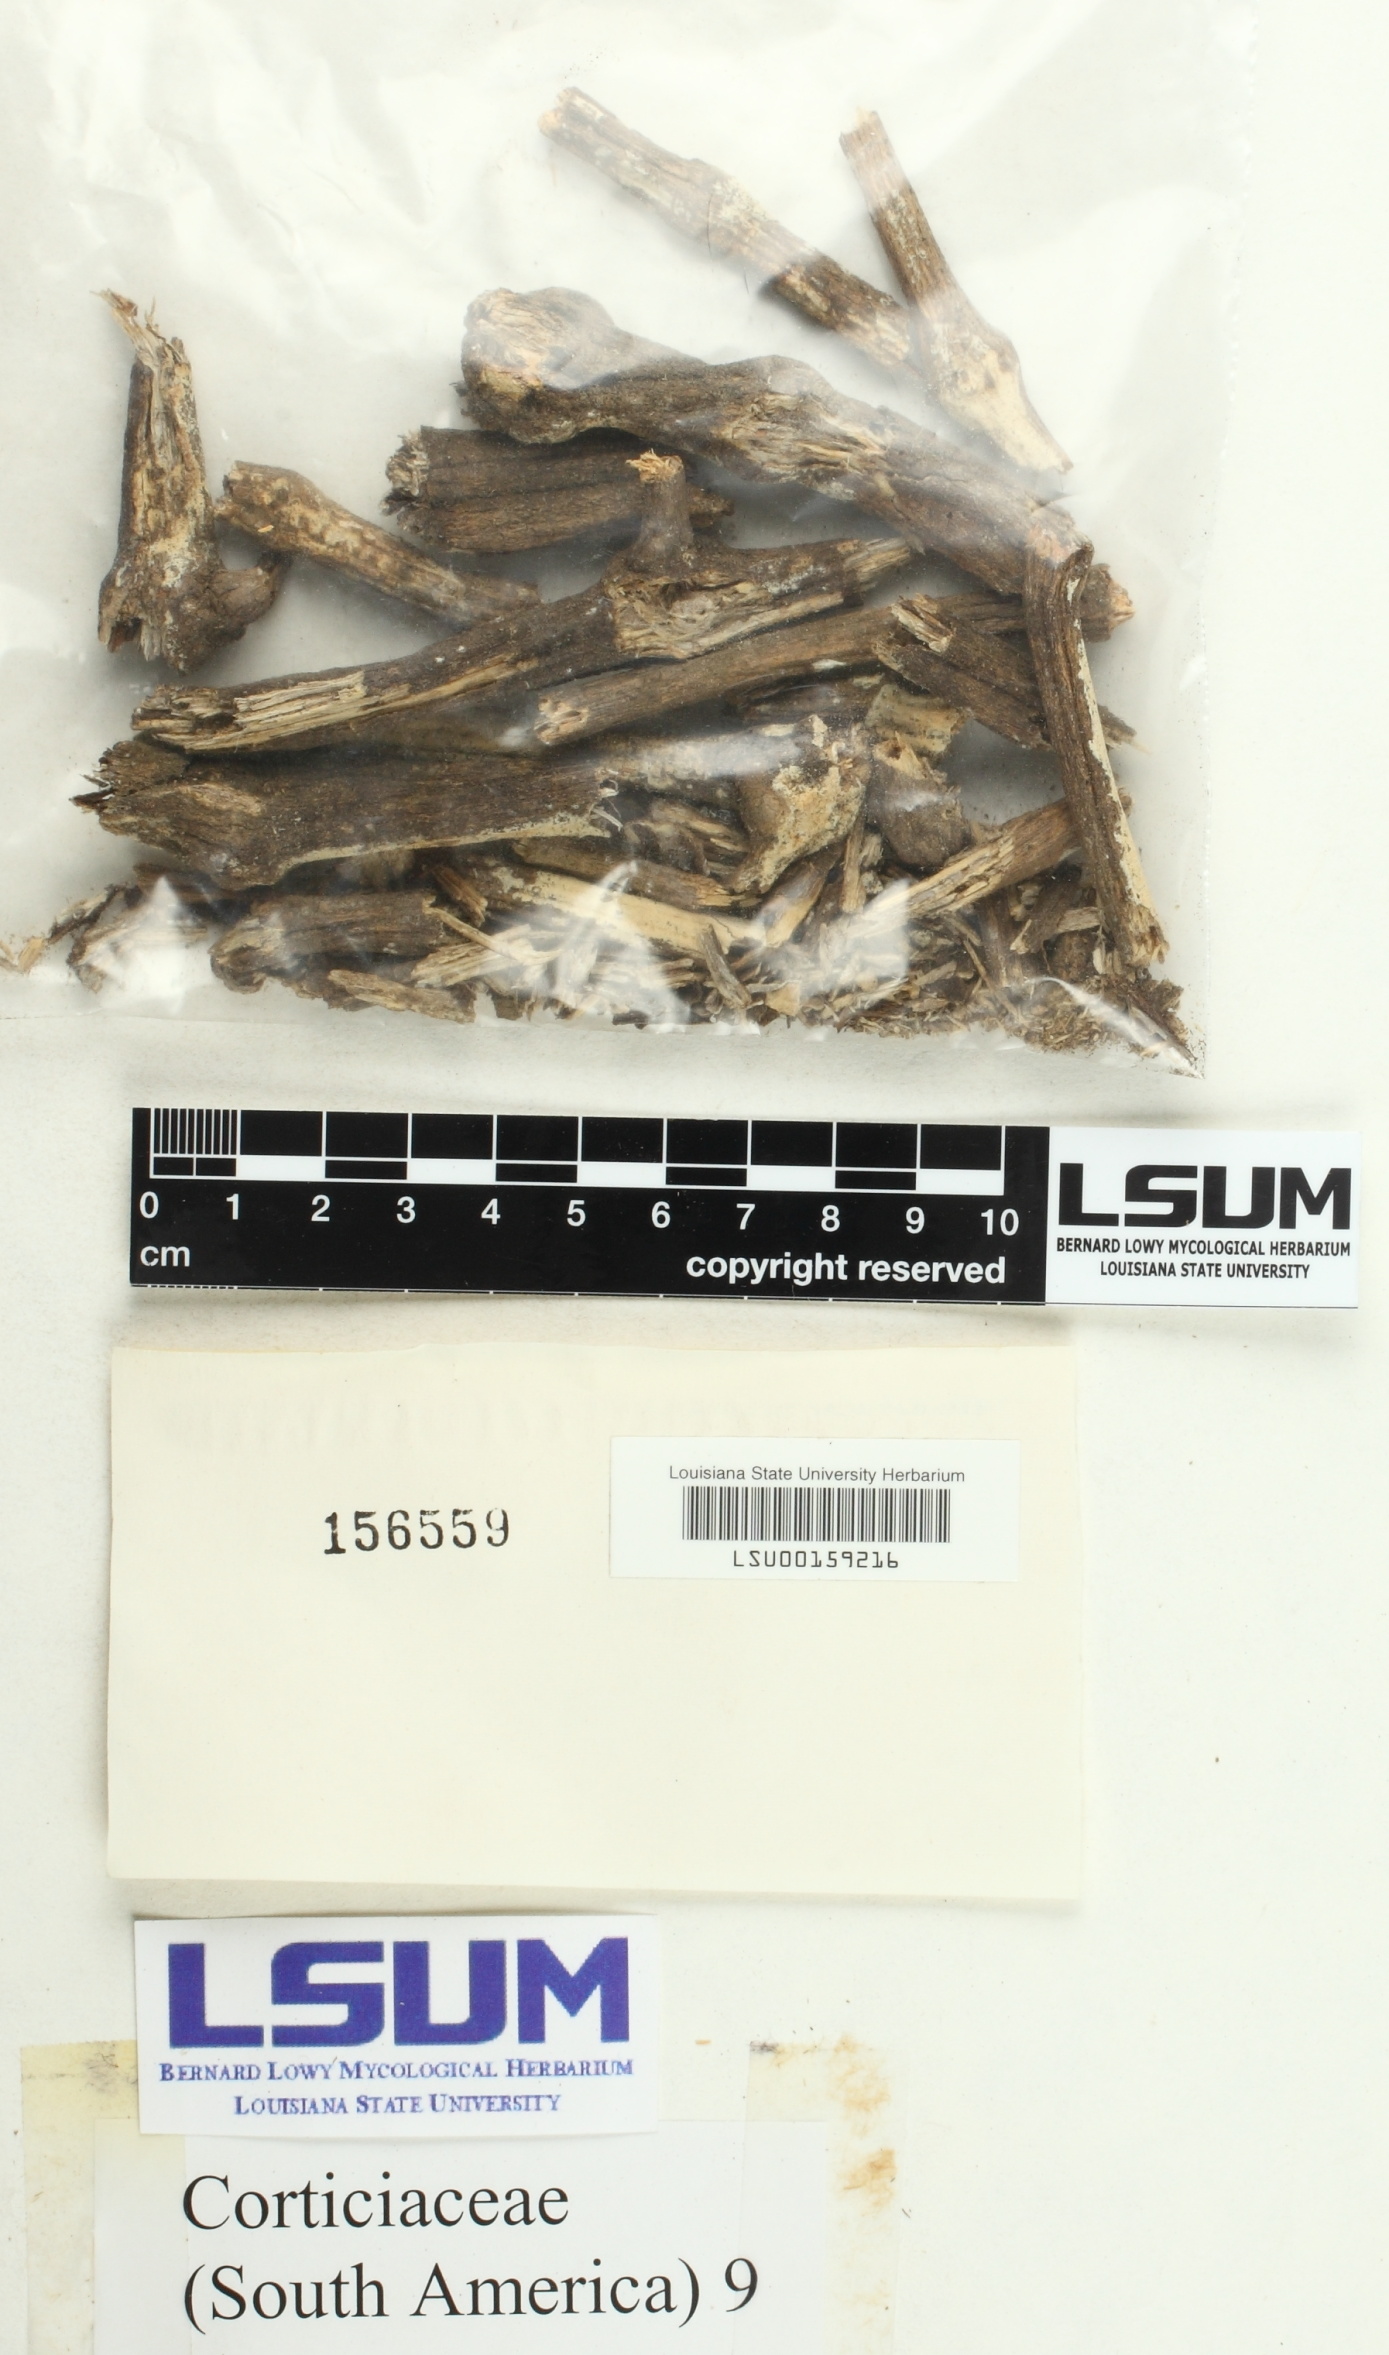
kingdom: Fungi
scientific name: Fungi
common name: Fungi
